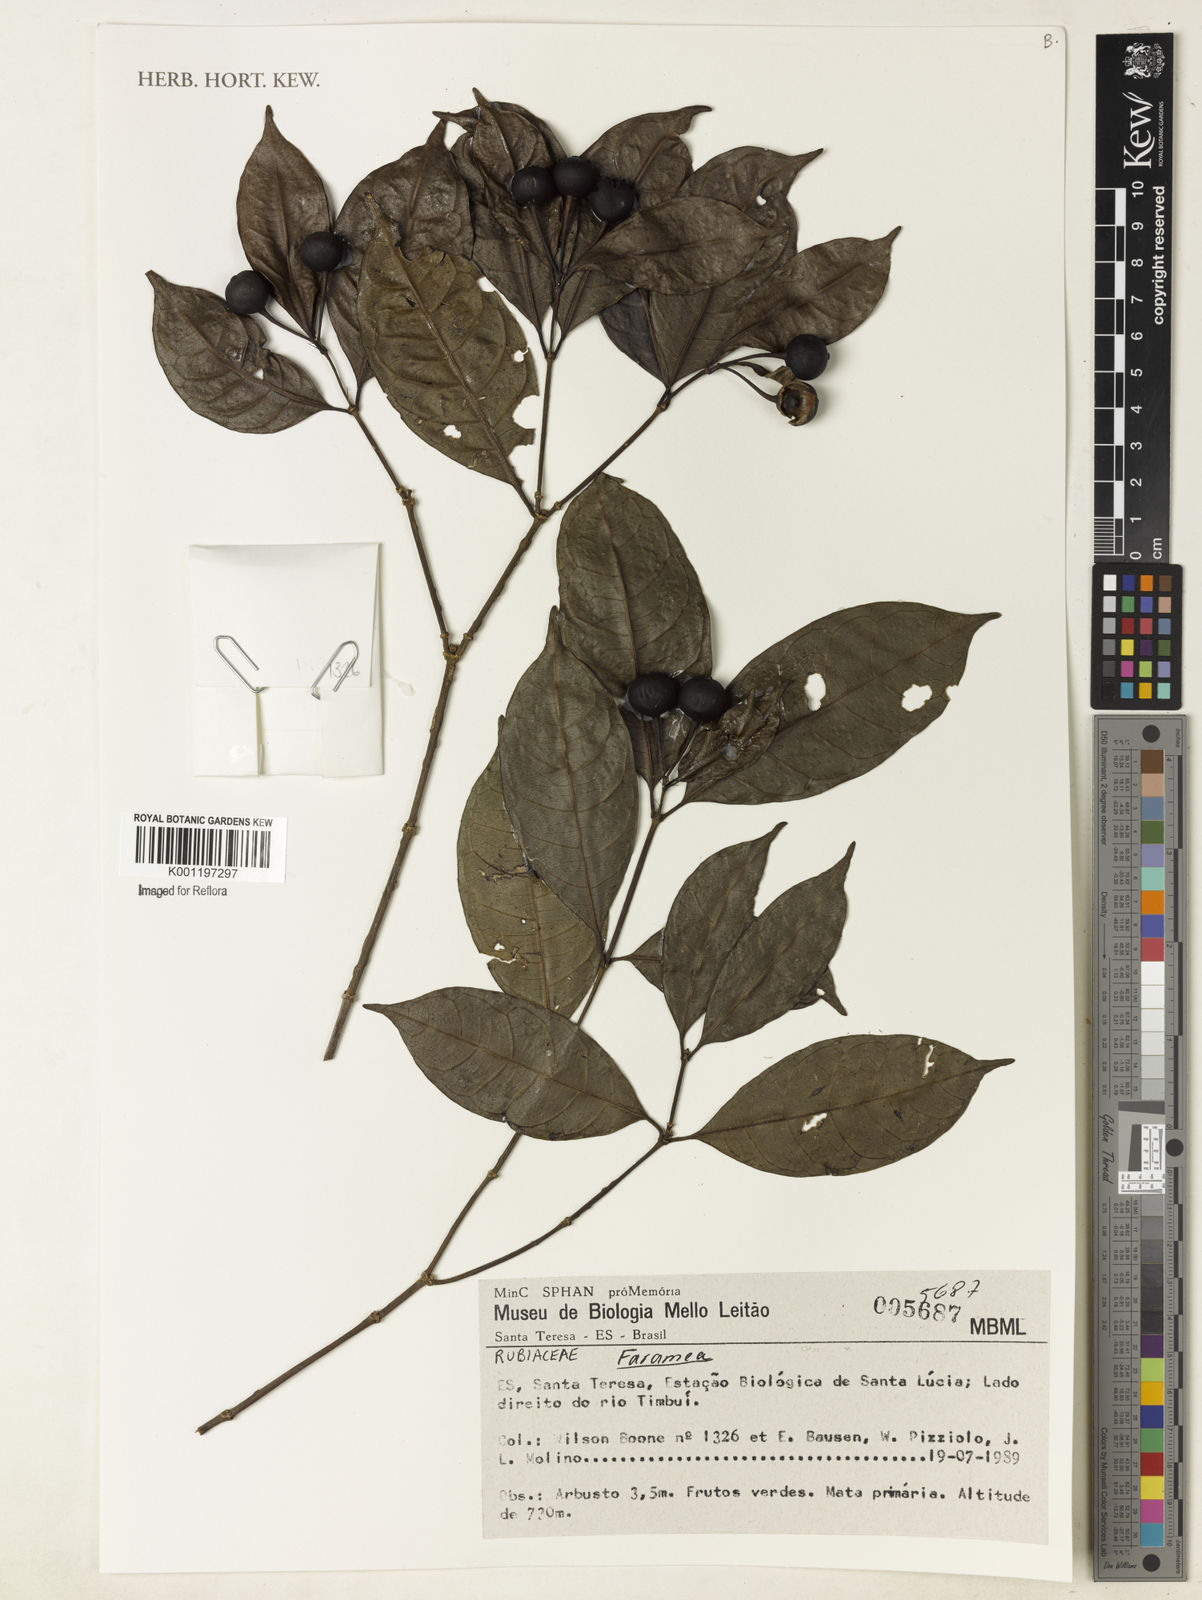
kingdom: Plantae
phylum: Tracheophyta
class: Magnoliopsida
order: Gentianales
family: Rubiaceae
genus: Faramea
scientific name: Faramea
